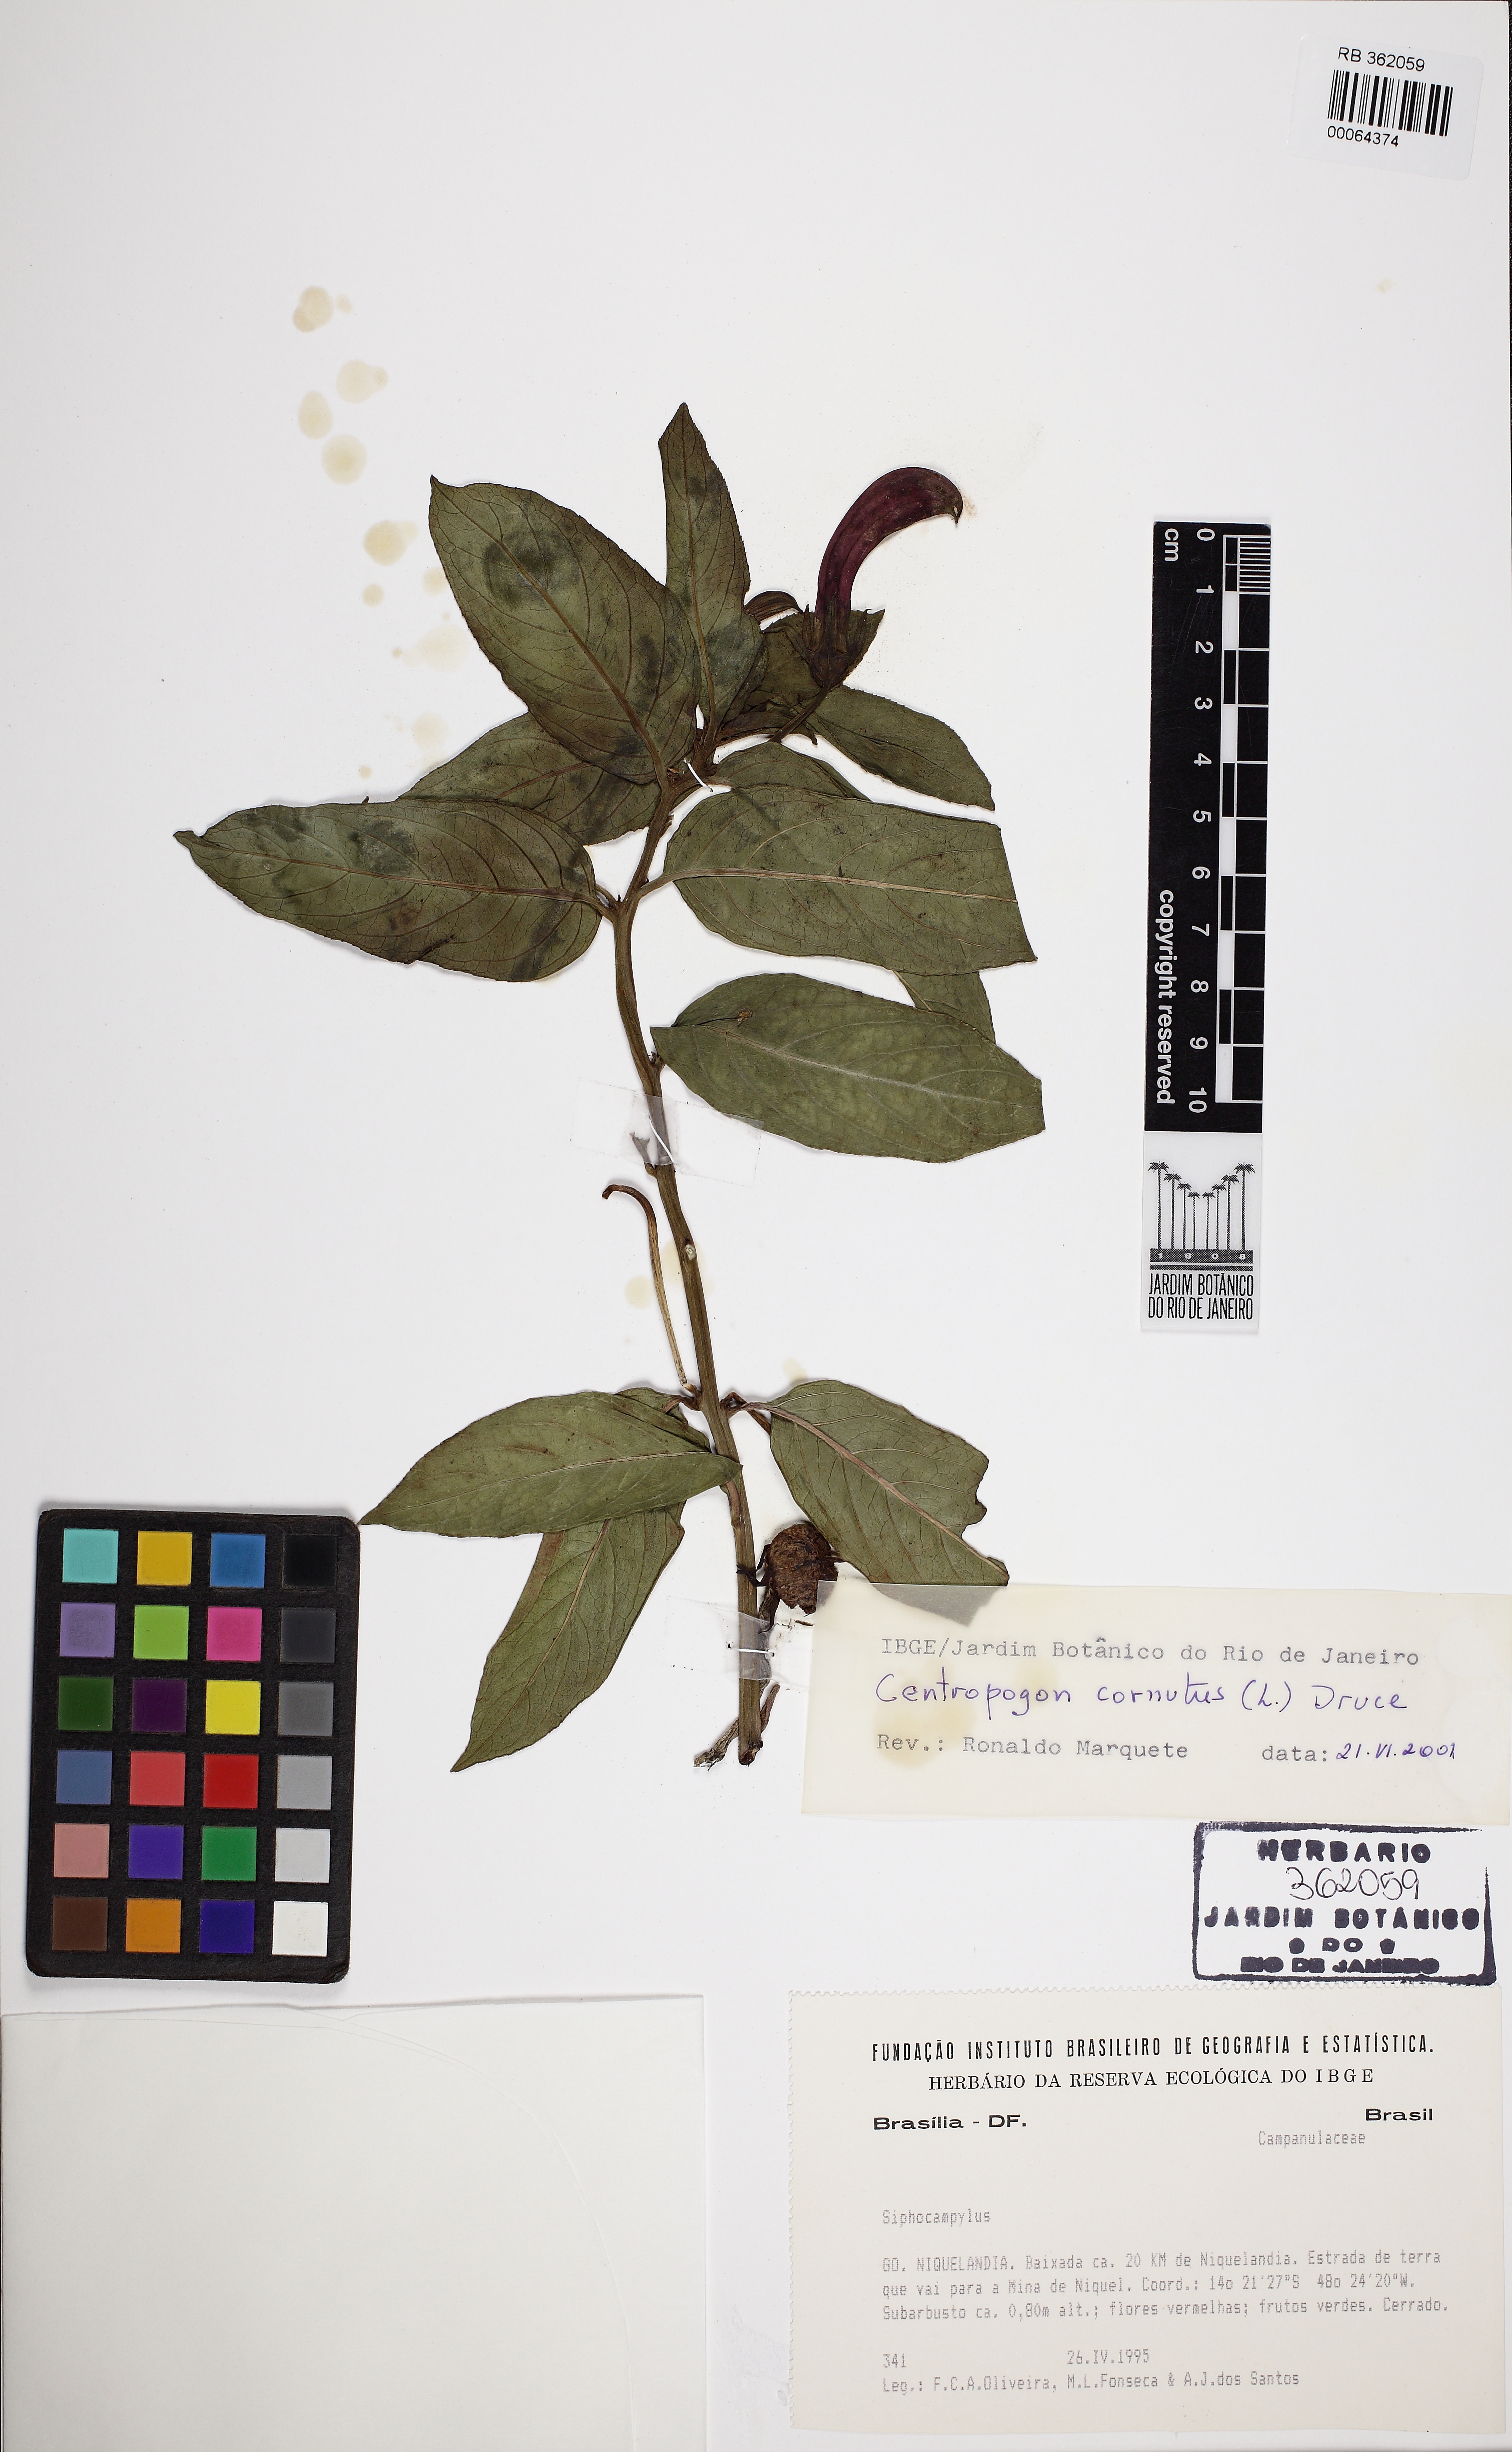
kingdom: Plantae
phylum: Tracheophyta
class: Magnoliopsida
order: Asterales
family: Campanulaceae
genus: Centropogon
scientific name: Centropogon cornutus
